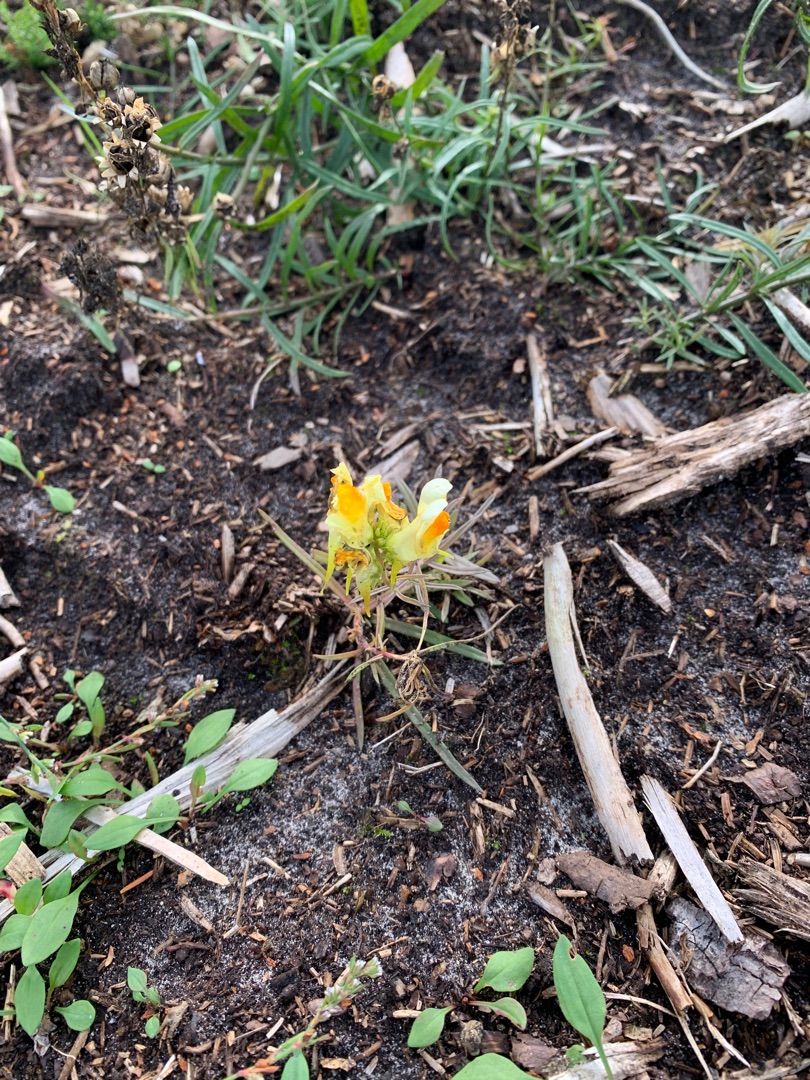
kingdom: Plantae
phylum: Tracheophyta
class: Magnoliopsida
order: Lamiales
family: Plantaginaceae
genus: Linaria
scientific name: Linaria vulgaris
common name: Almindelig torskemund
